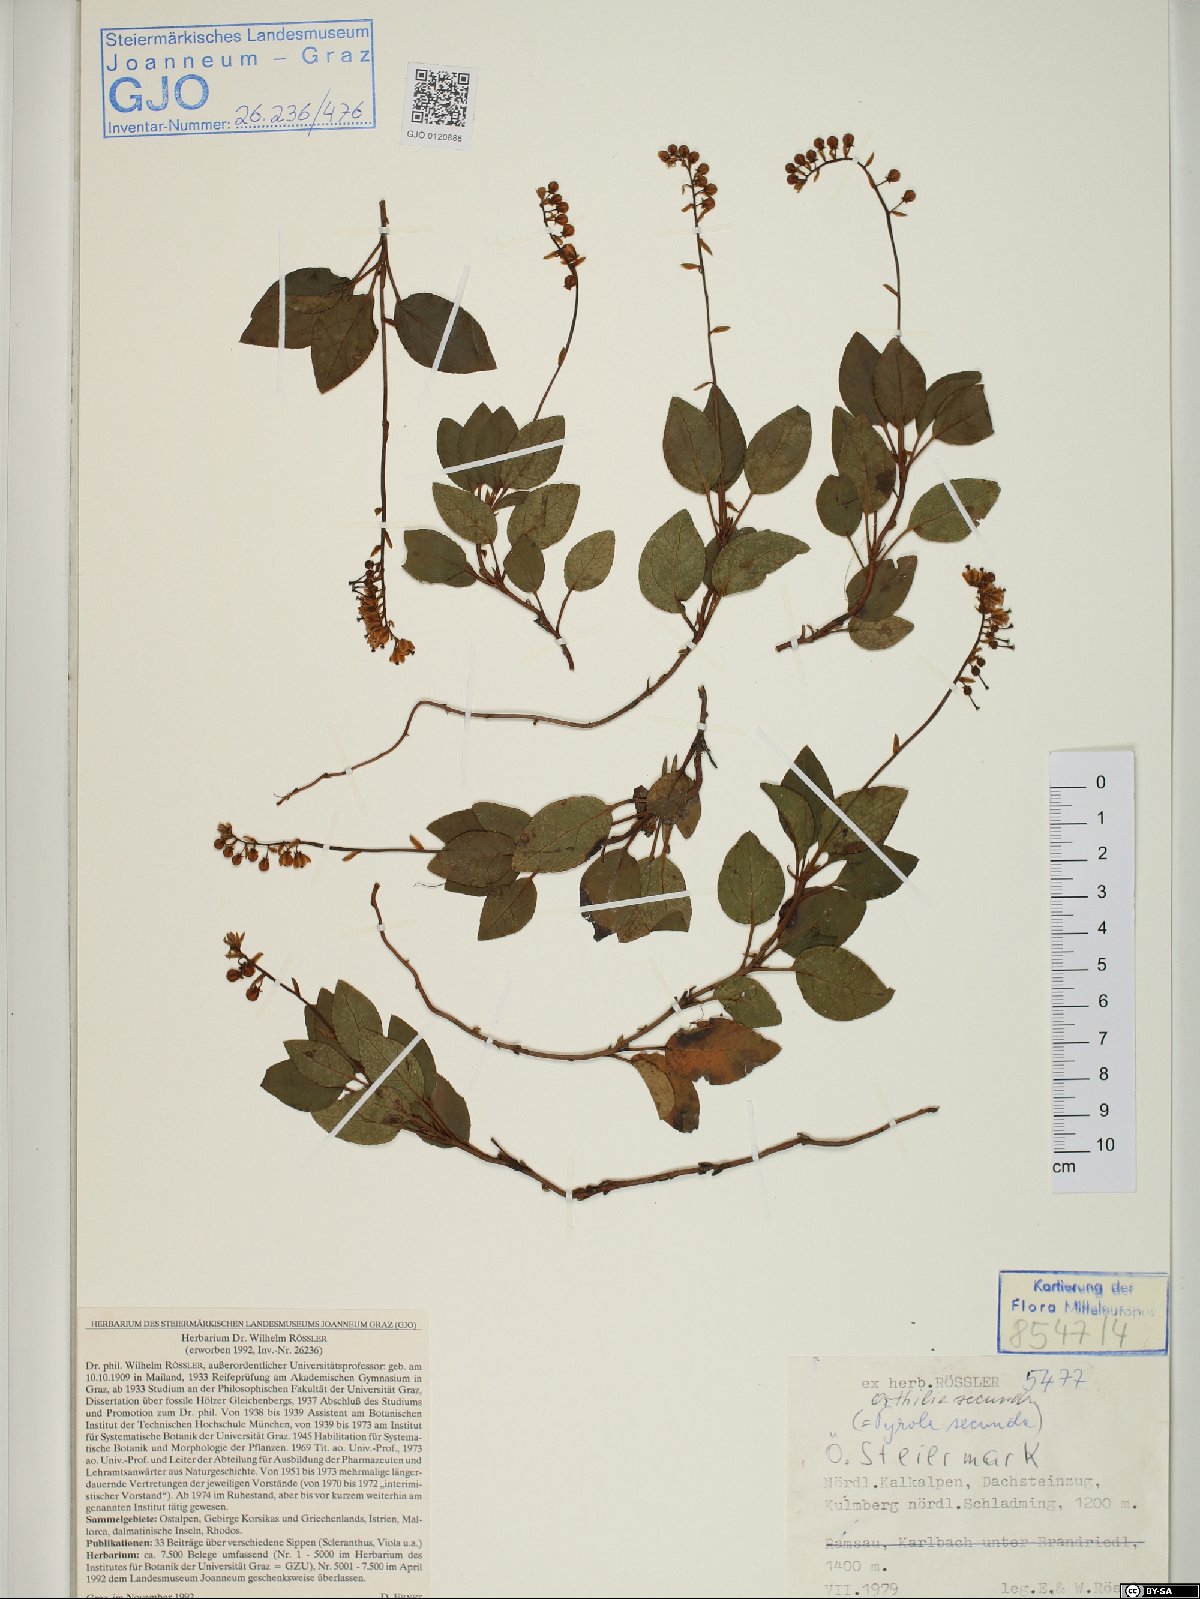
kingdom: Plantae
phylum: Tracheophyta
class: Magnoliopsida
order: Ericales
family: Ericaceae
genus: Orthilia
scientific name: Orthilia secunda
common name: One-sided orthilia
